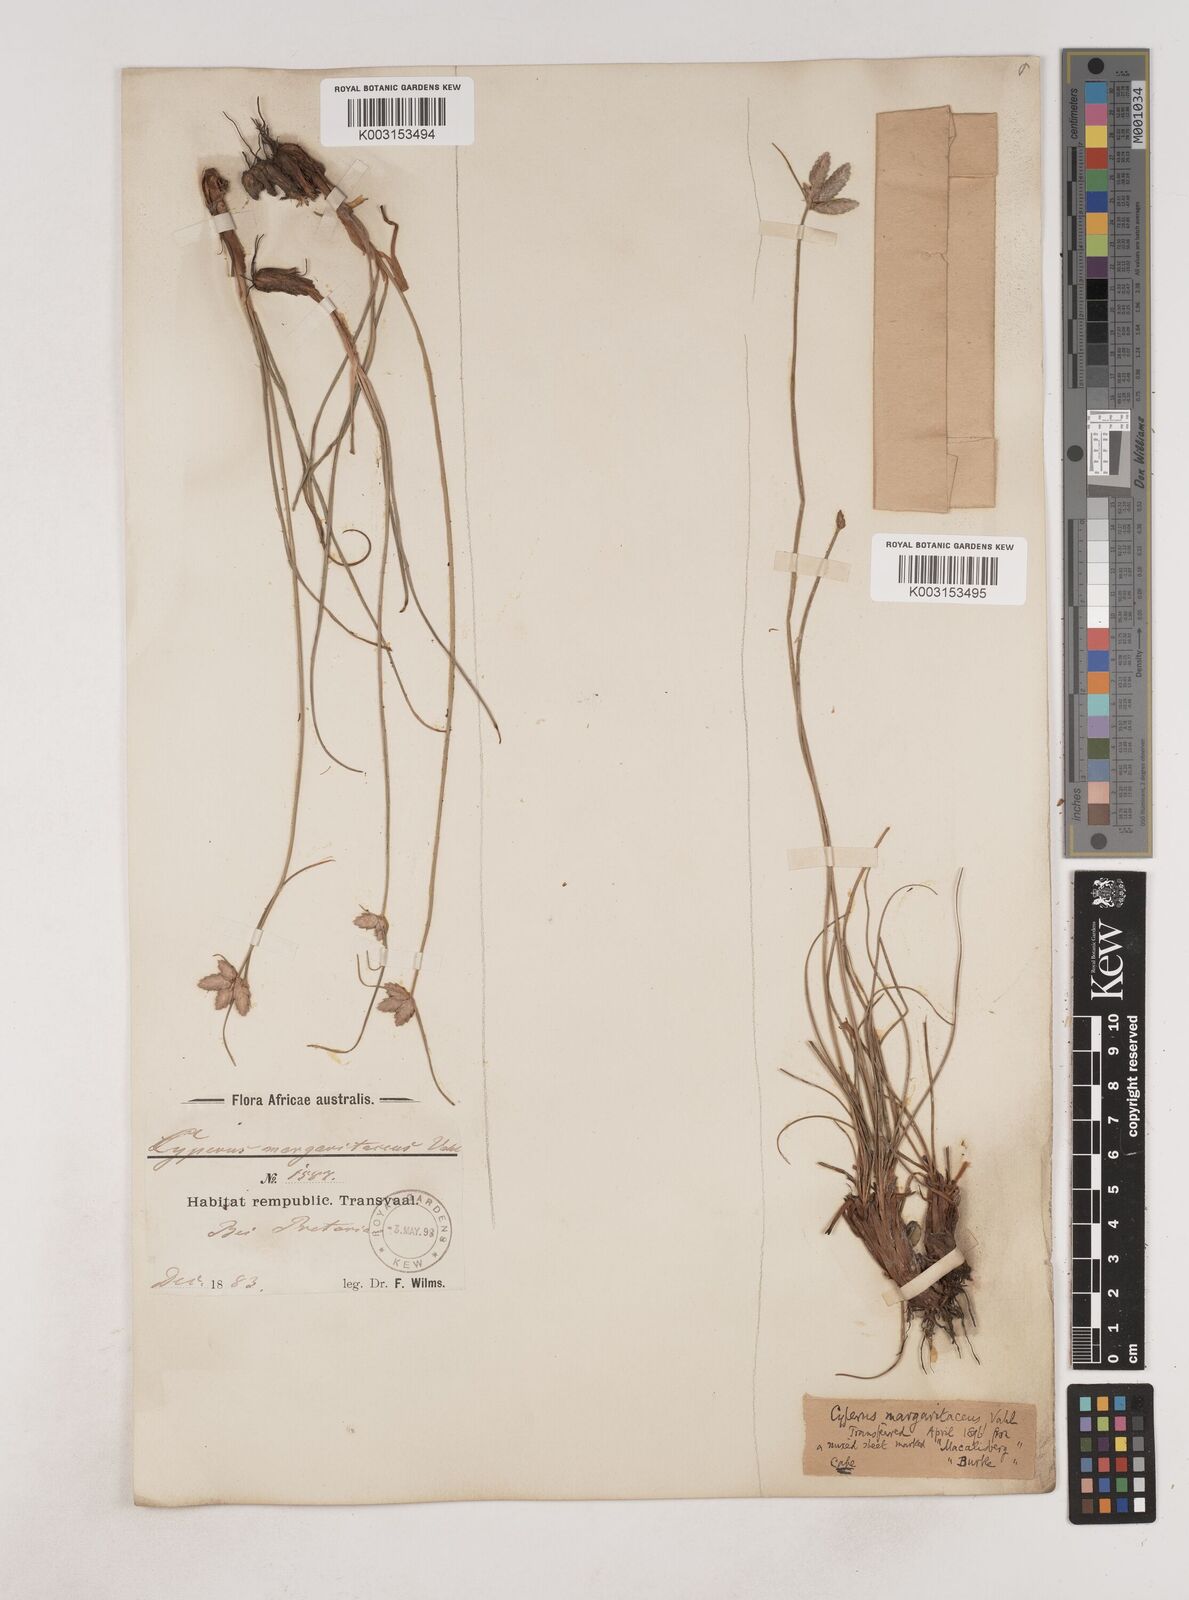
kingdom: Plantae
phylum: Tracheophyta
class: Liliopsida
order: Poales
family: Cyperaceae
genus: Cyperus
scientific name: Cyperus margaritaceus
